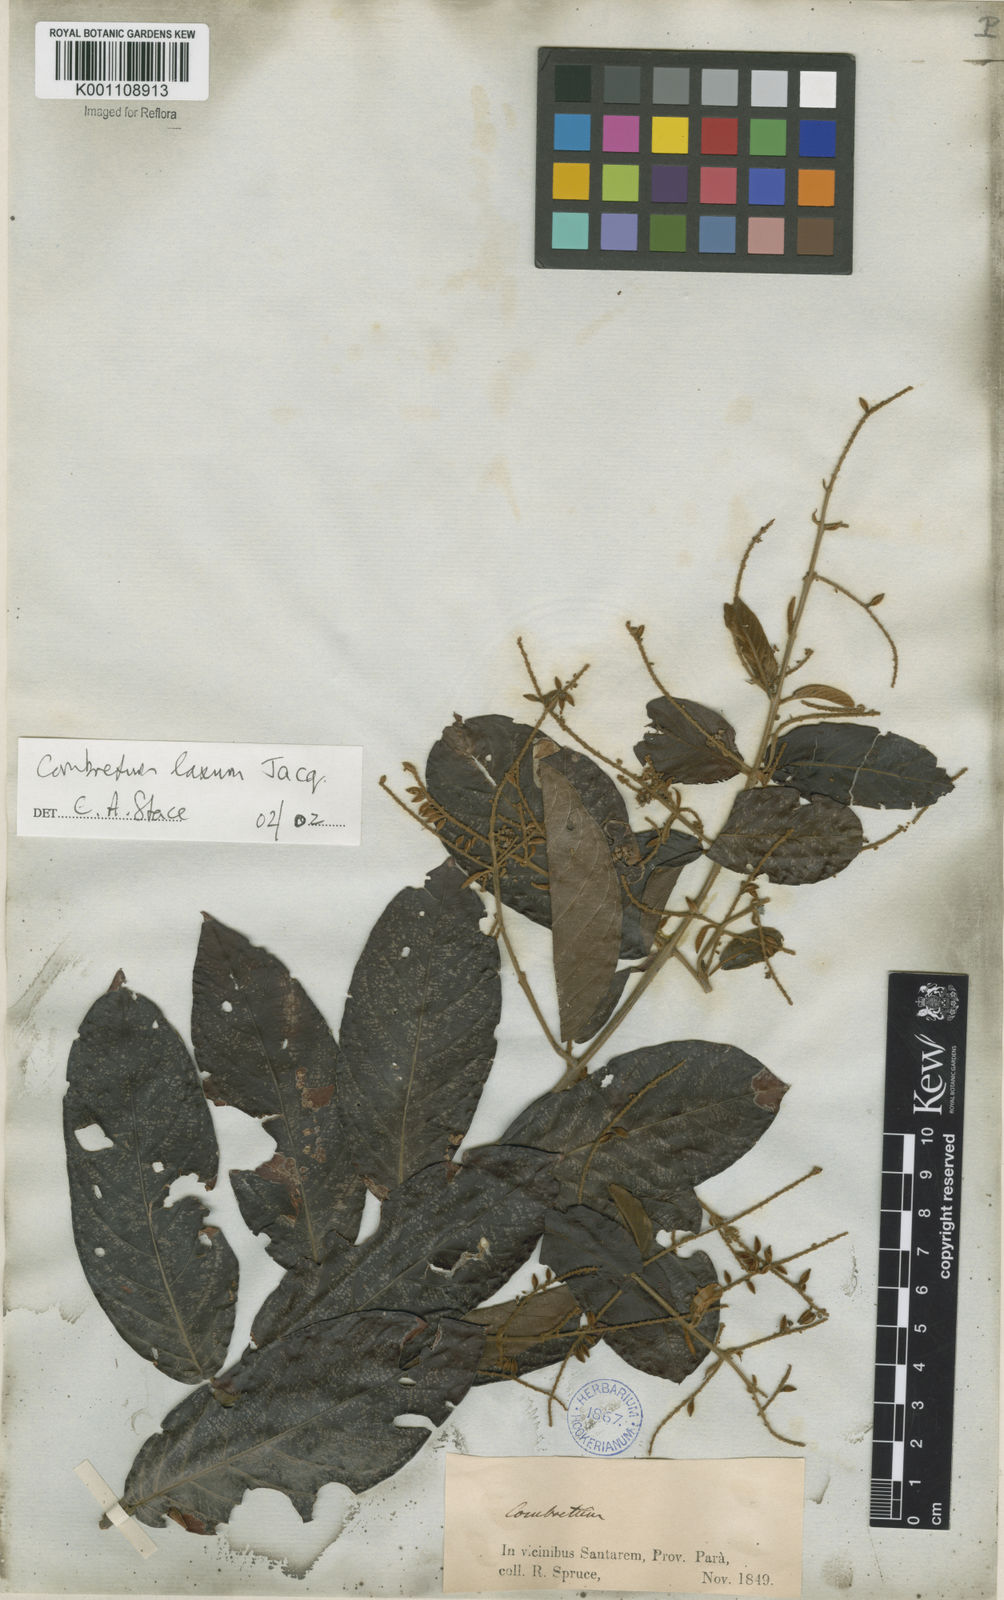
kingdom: Plantae
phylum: Tracheophyta
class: Magnoliopsida
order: Myrtales
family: Combretaceae
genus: Combretum
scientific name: Combretum laxum
